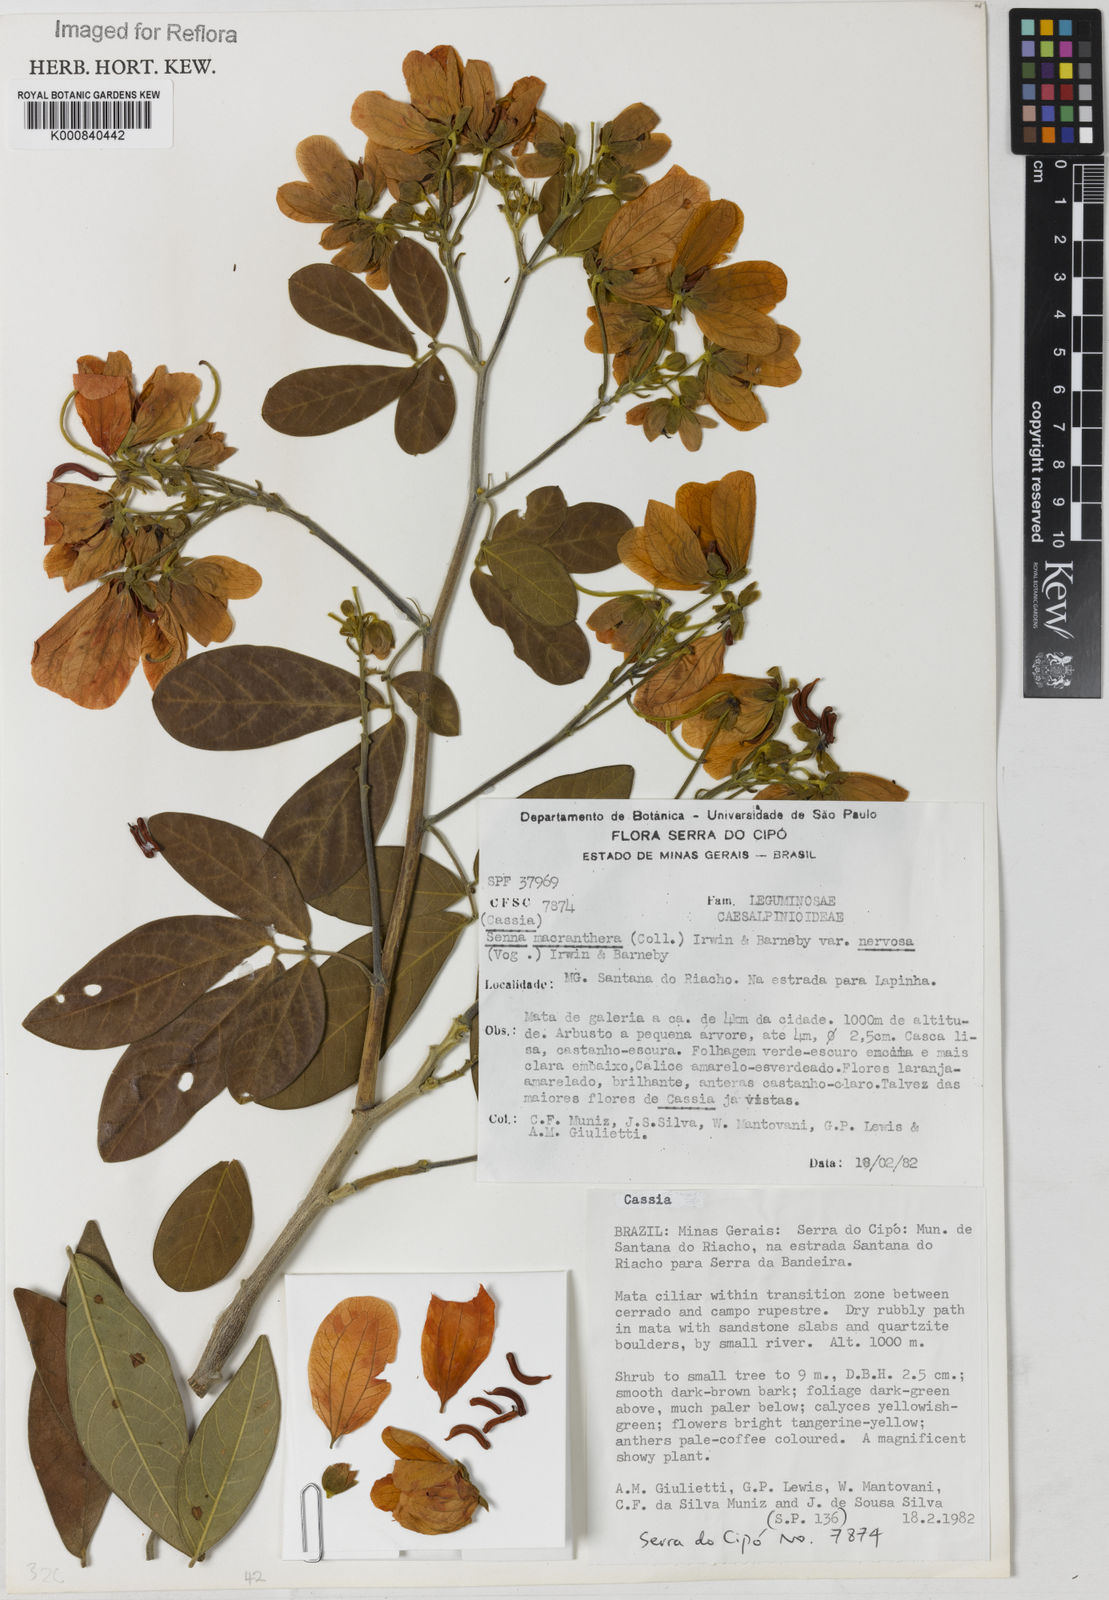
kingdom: Plantae
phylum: Tracheophyta
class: Magnoliopsida
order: Fabales
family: Fabaceae
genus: Senna
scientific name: Senna macranthera
